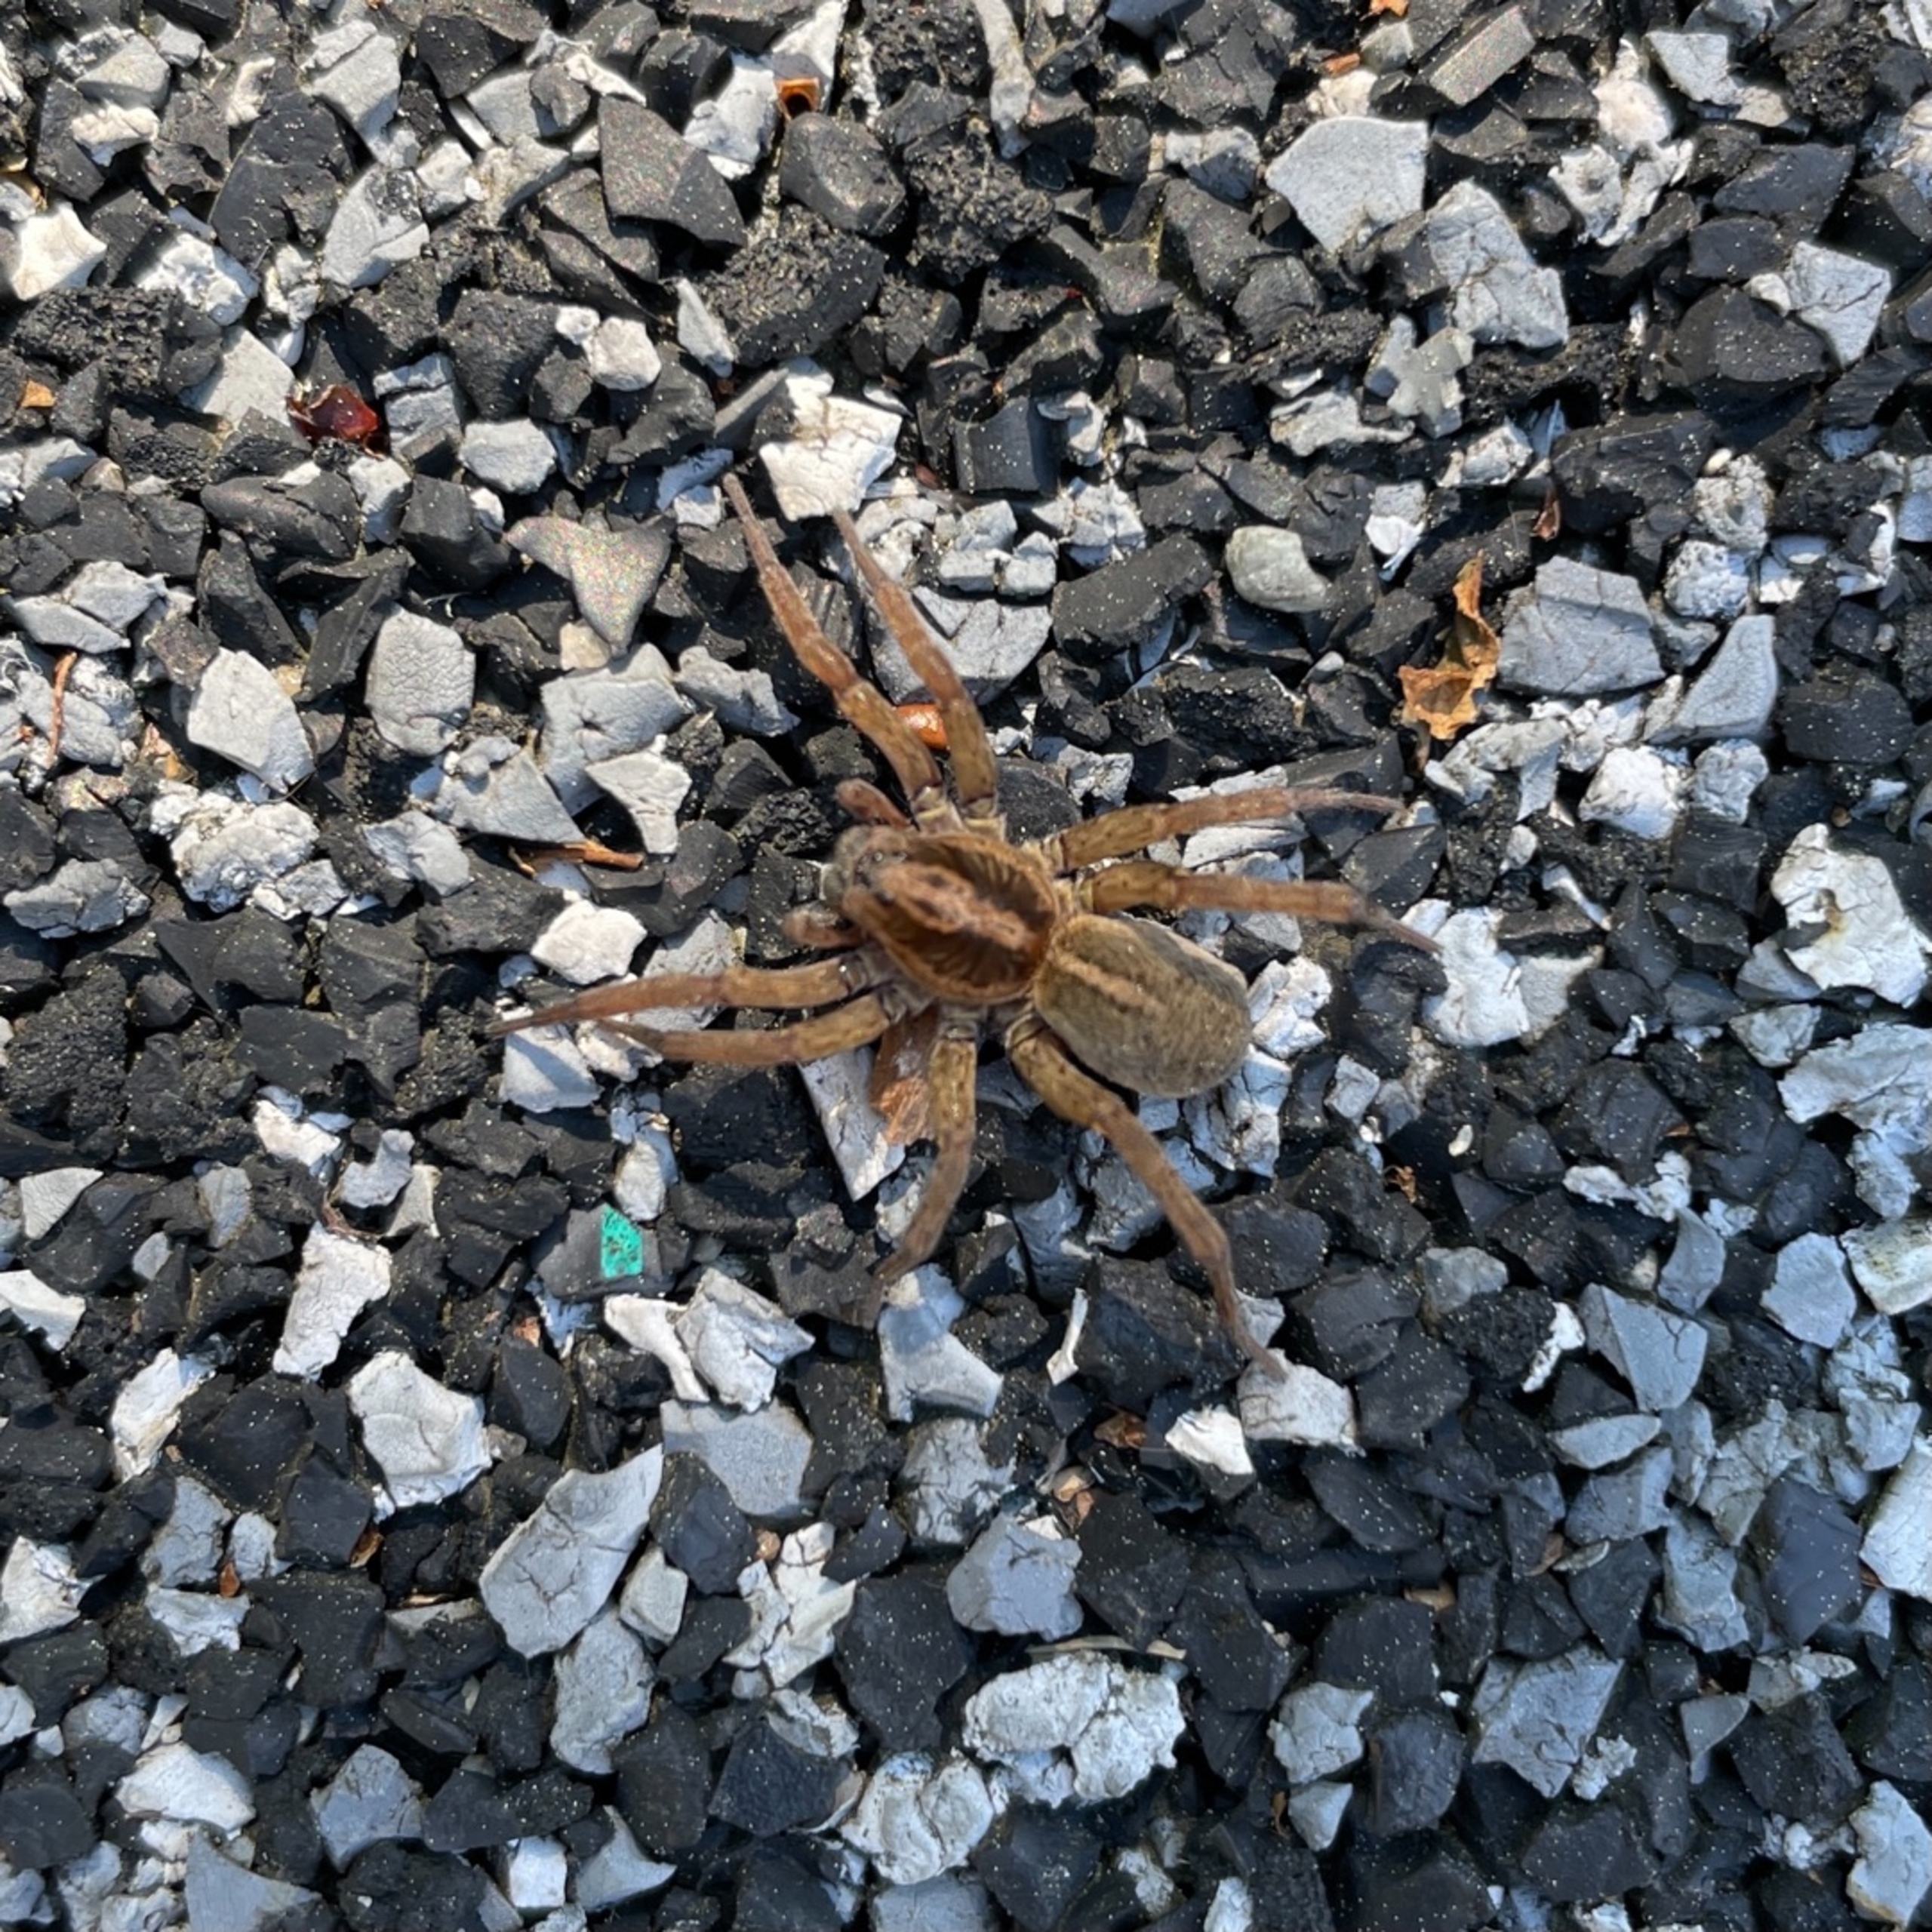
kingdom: Animalia
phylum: Arthropoda
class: Arachnida
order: Araneae
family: Lycosidae
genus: Trochosa
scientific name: Trochosa ruricola
